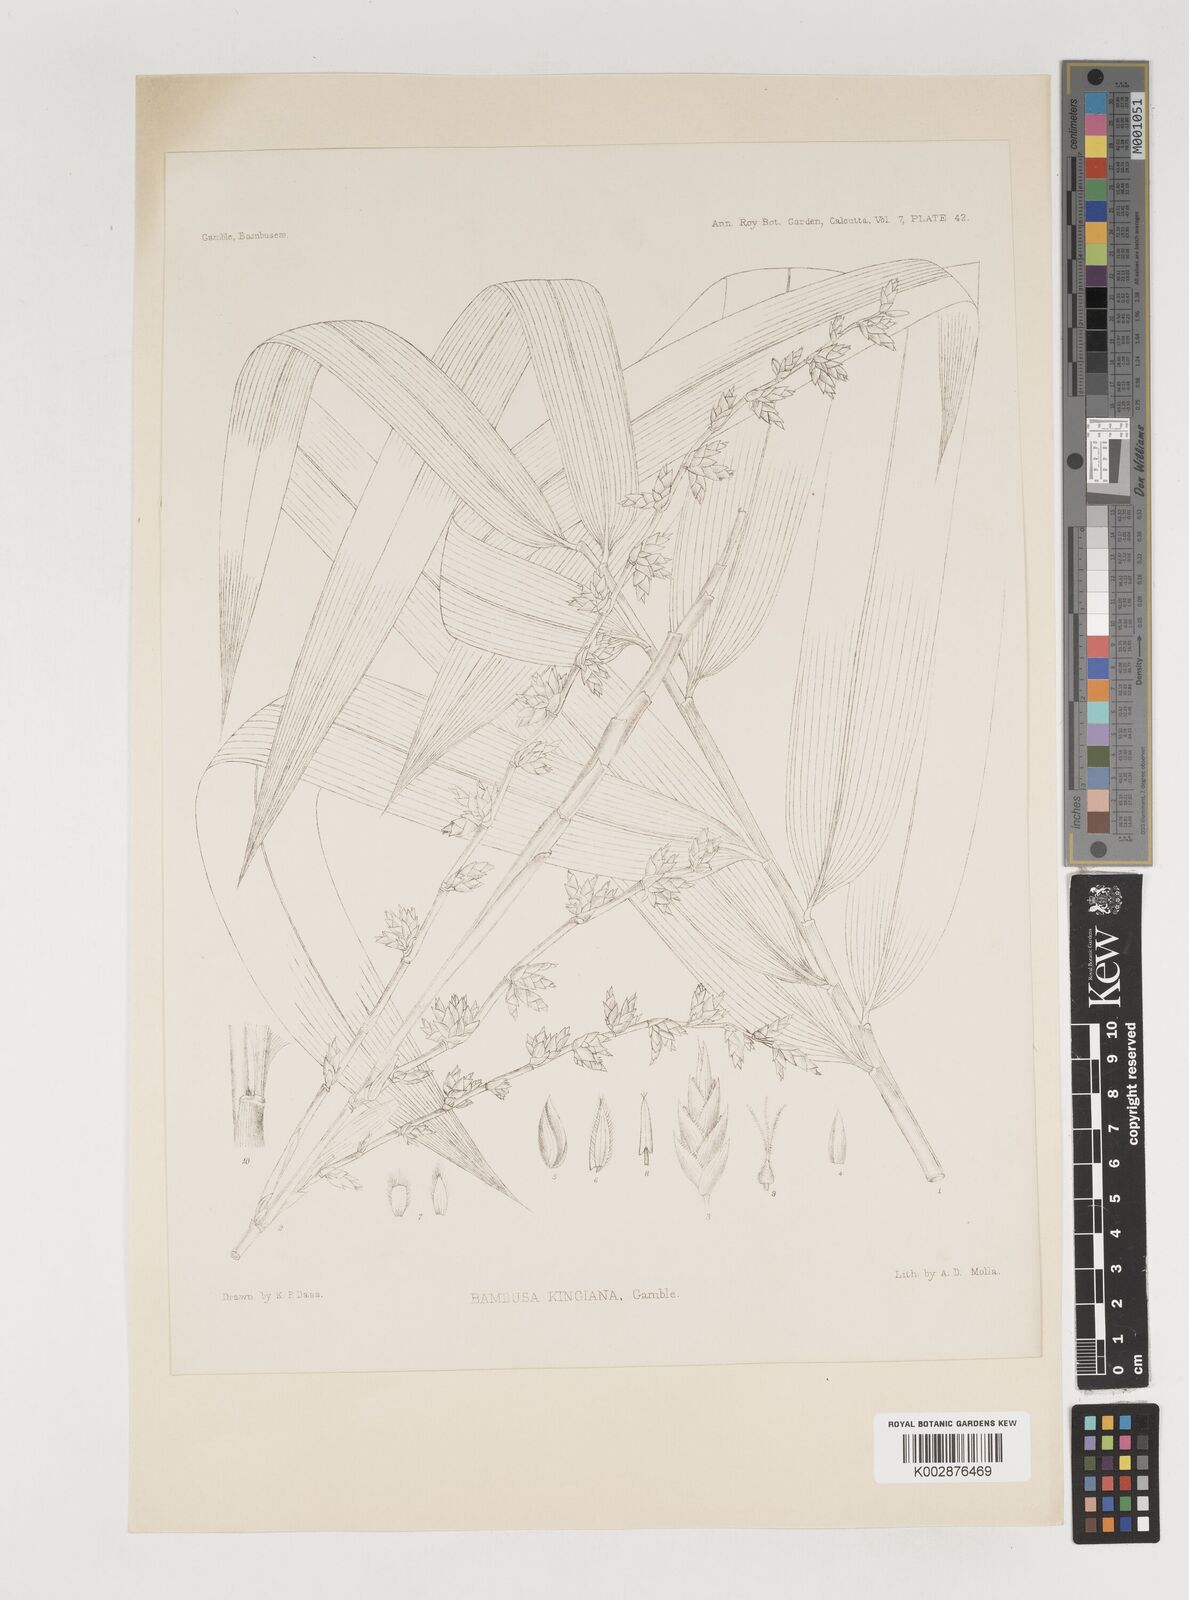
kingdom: Plantae
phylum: Tracheophyta
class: Liliopsida
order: Poales
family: Poaceae
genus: Bambusa
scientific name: Bambusa kingiana
